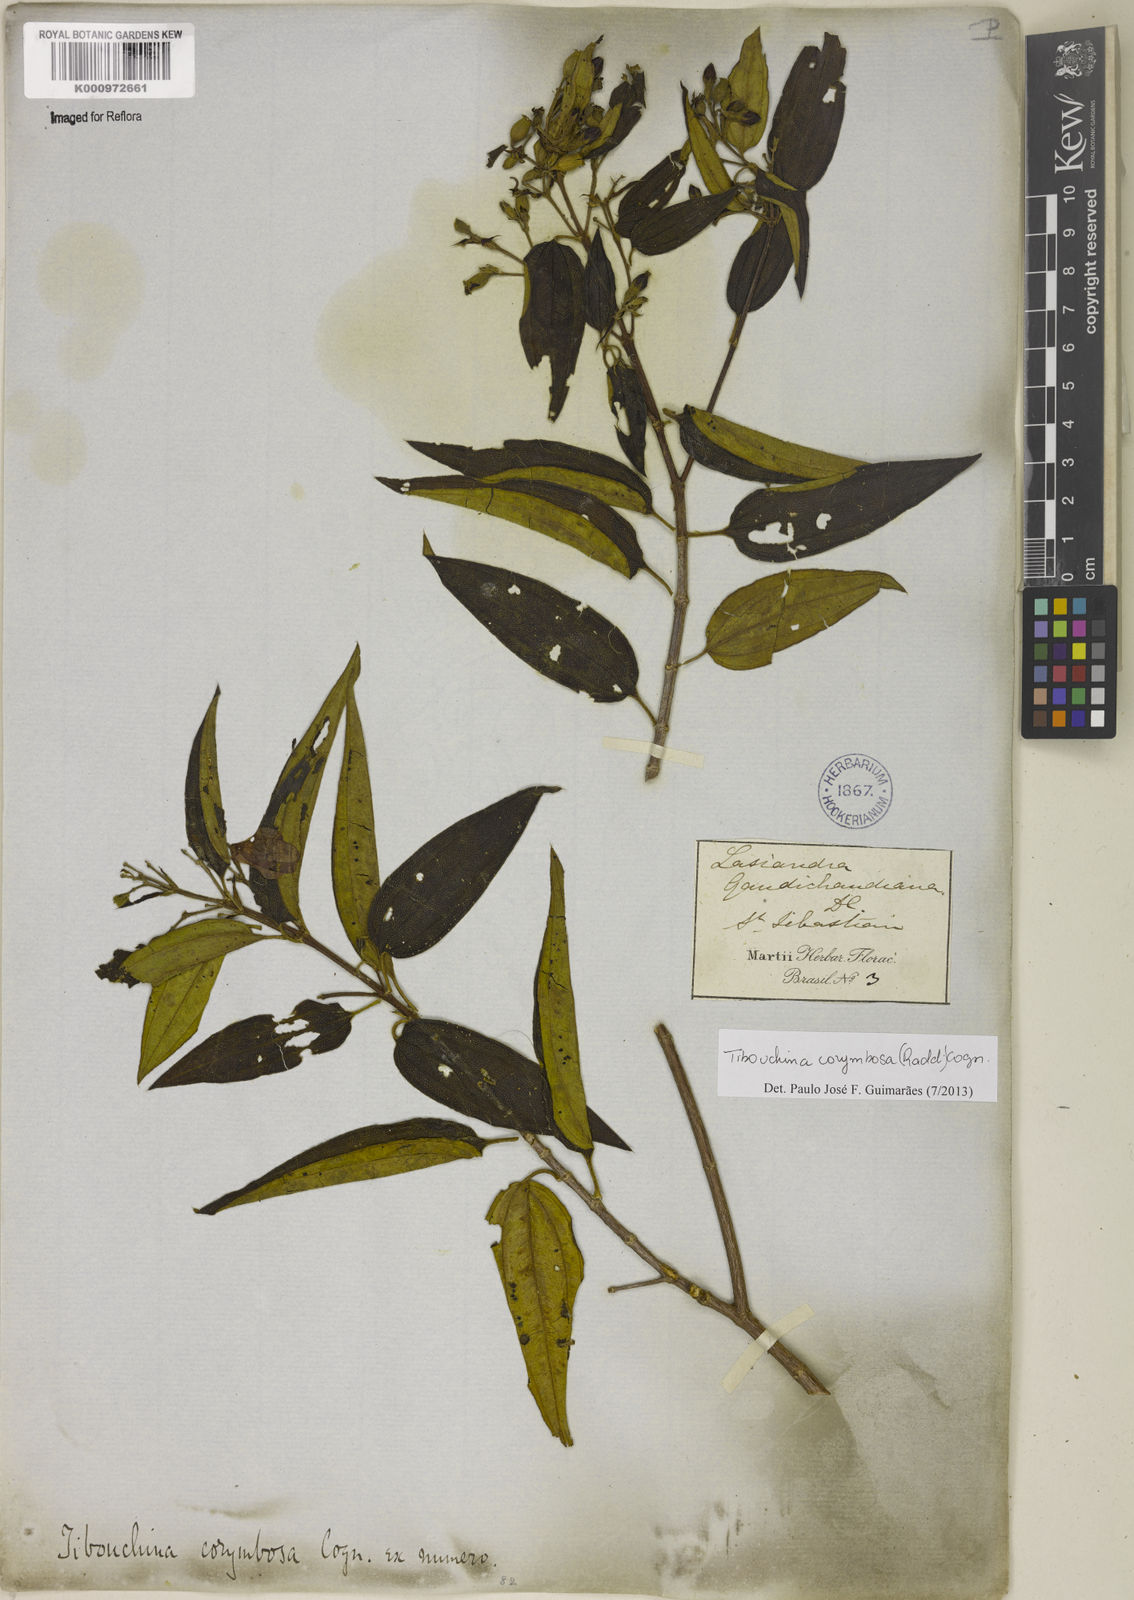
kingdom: Plantae
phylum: Tracheophyta
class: Magnoliopsida
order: Myrtales
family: Melastomataceae
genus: Pleroma
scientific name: Pleroma vimineum
